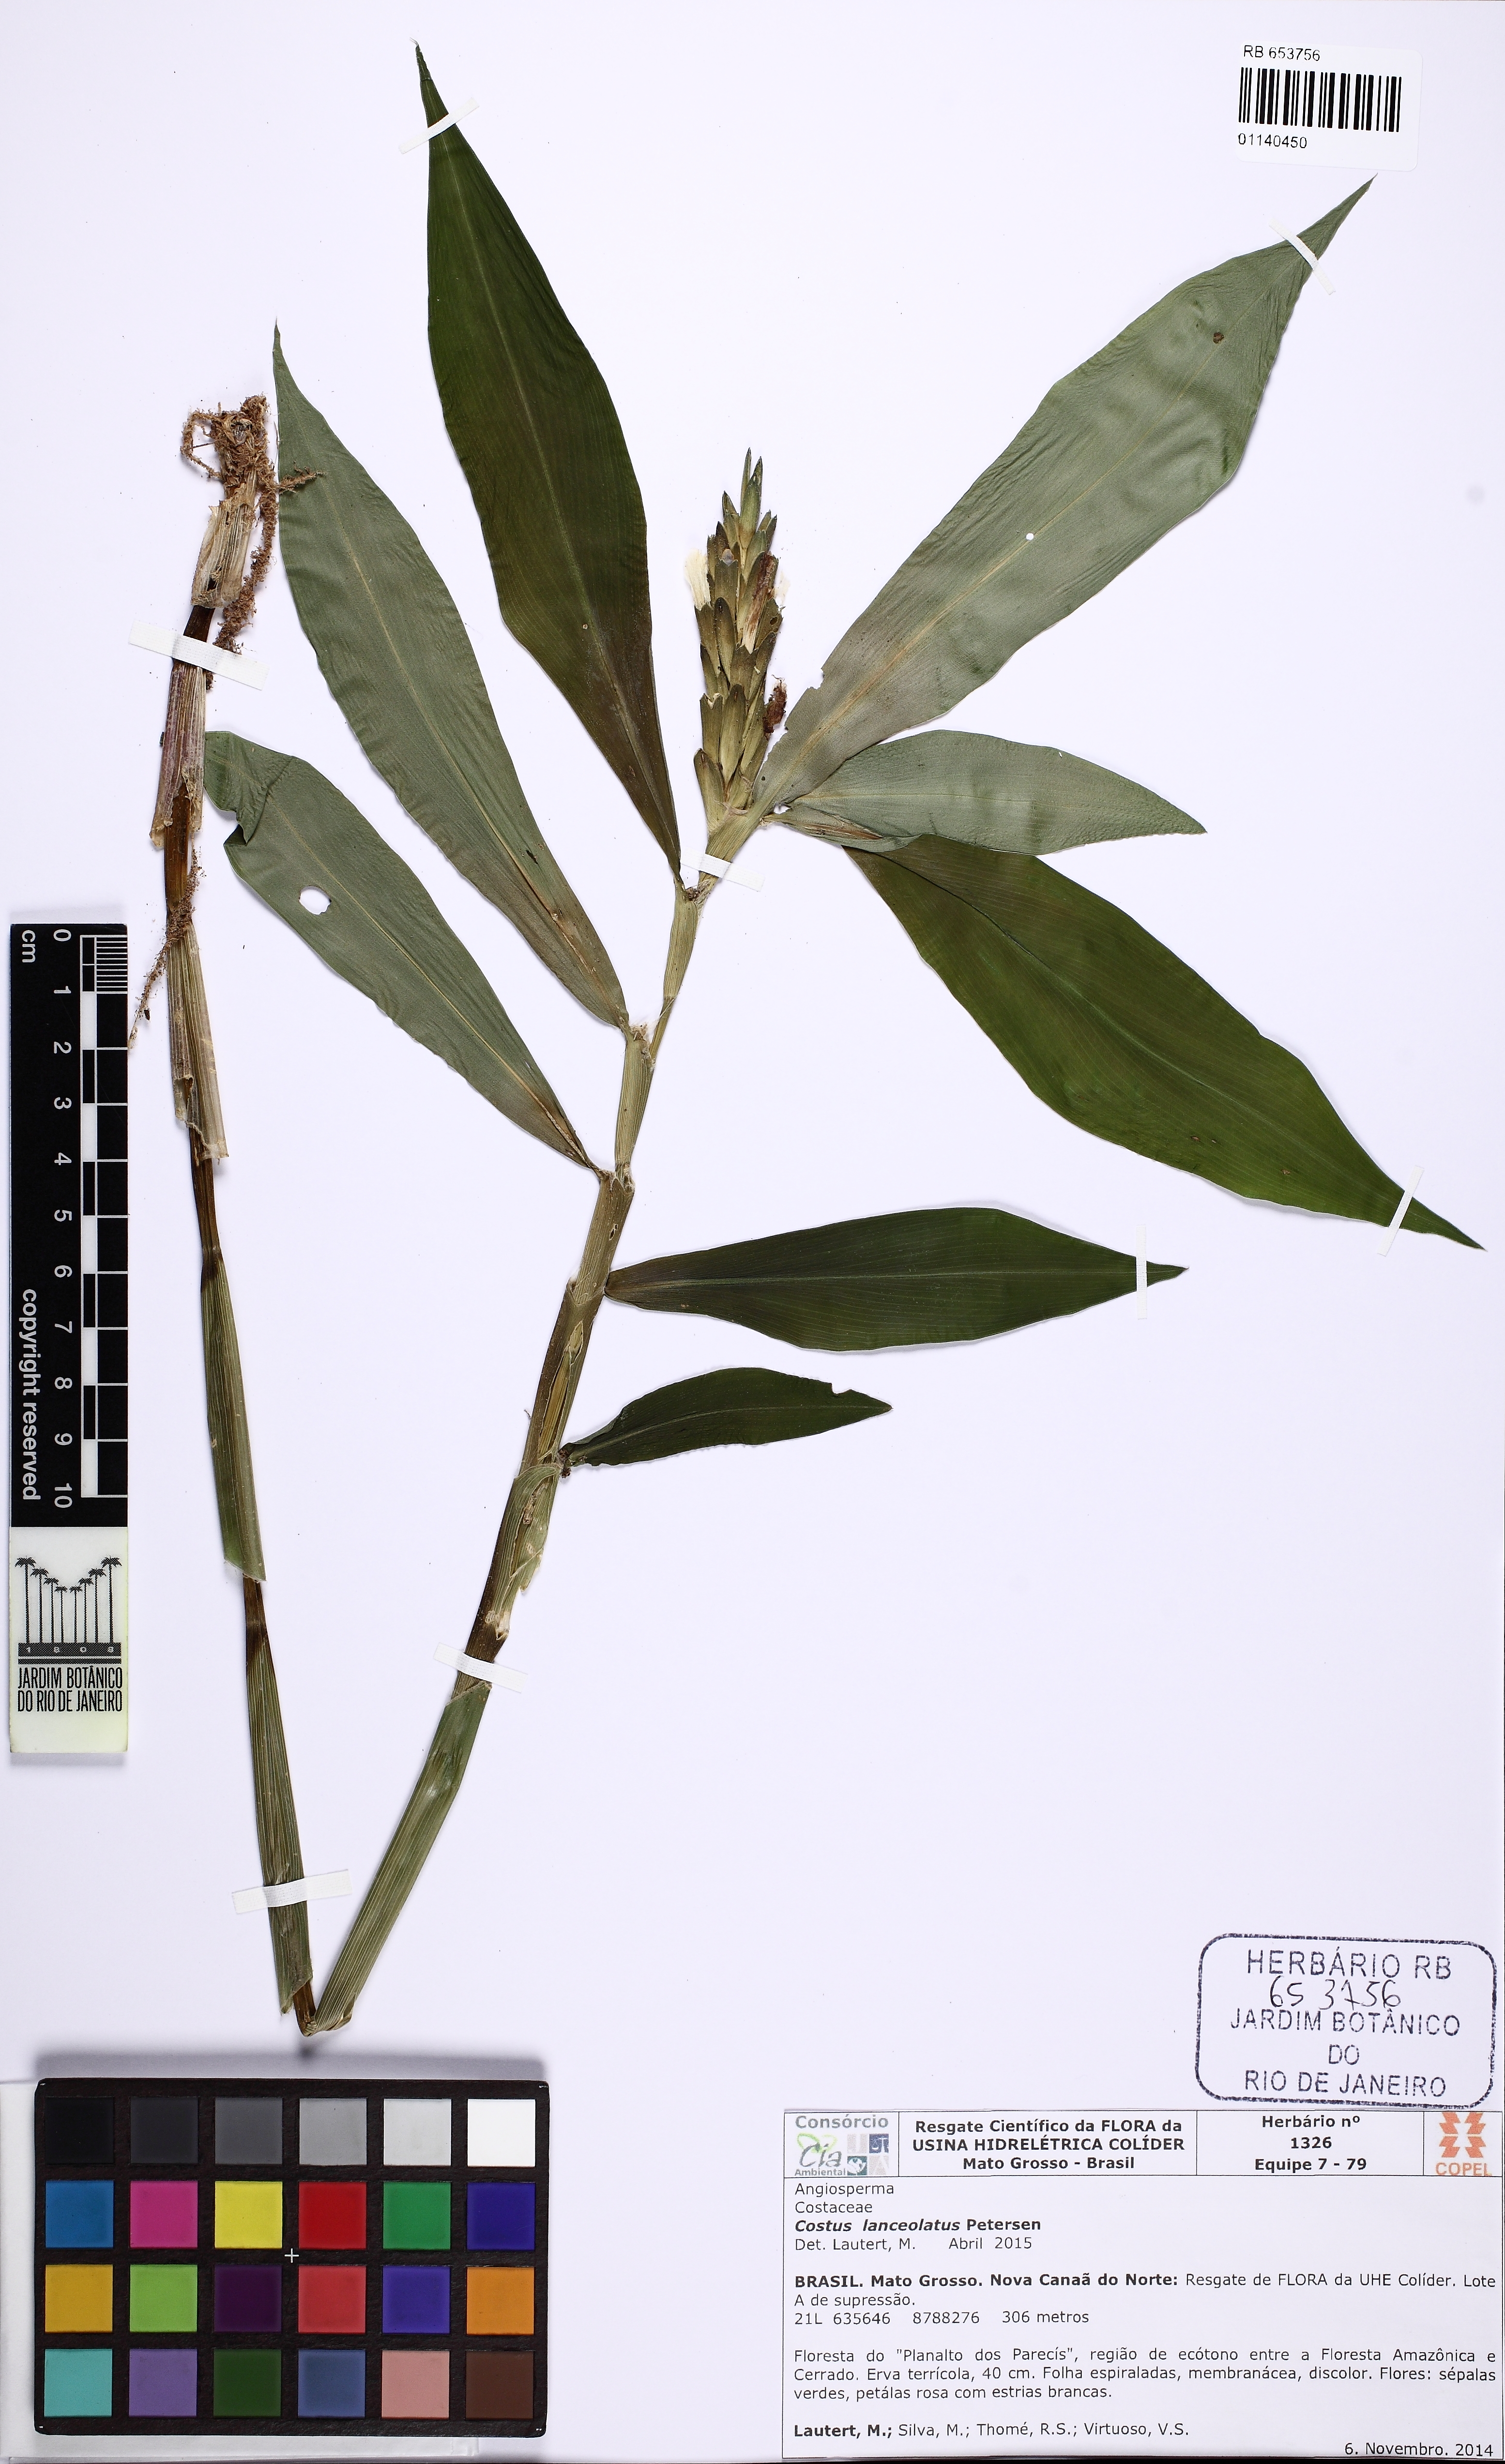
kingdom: Plantae
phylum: Tracheophyta
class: Liliopsida
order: Zingiberales
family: Costaceae
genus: Chamaecostus
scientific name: Chamaecostus lanceolatus
